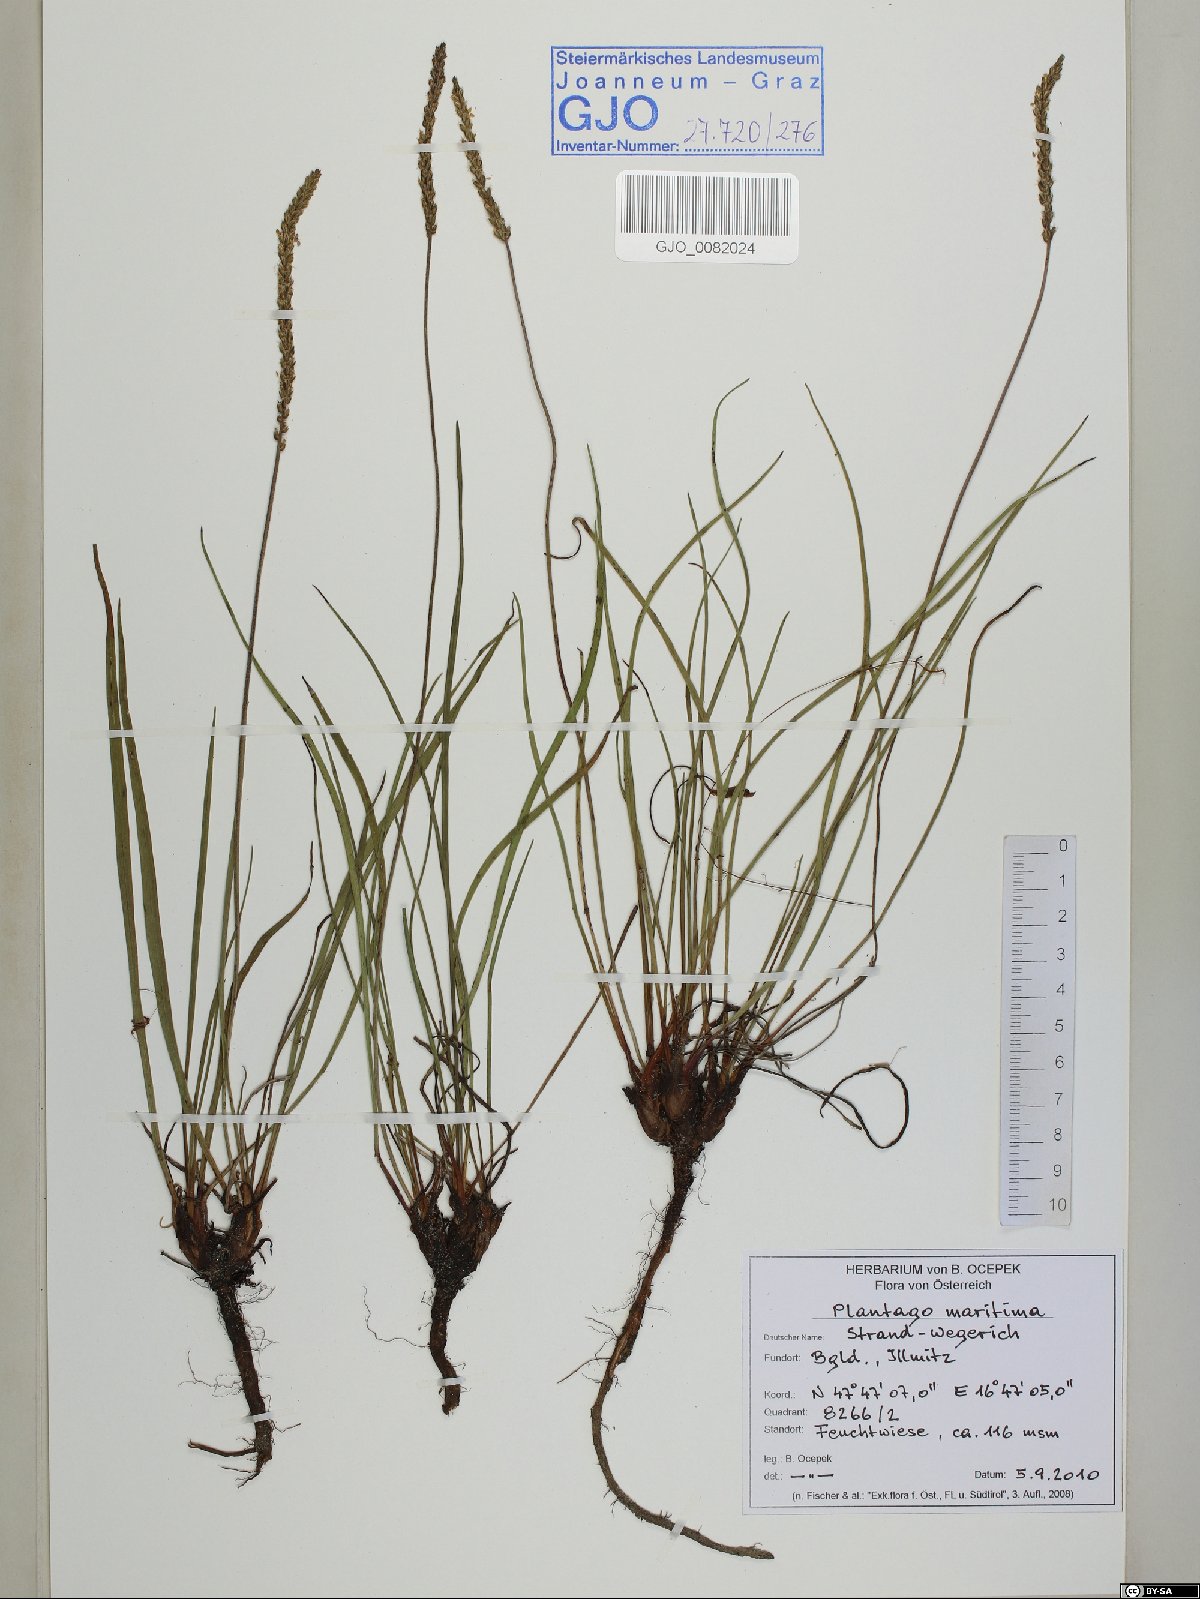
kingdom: Plantae
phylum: Tracheophyta
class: Magnoliopsida
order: Lamiales
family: Plantaginaceae
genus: Plantago
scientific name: Plantago maritima
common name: Sea plantain
